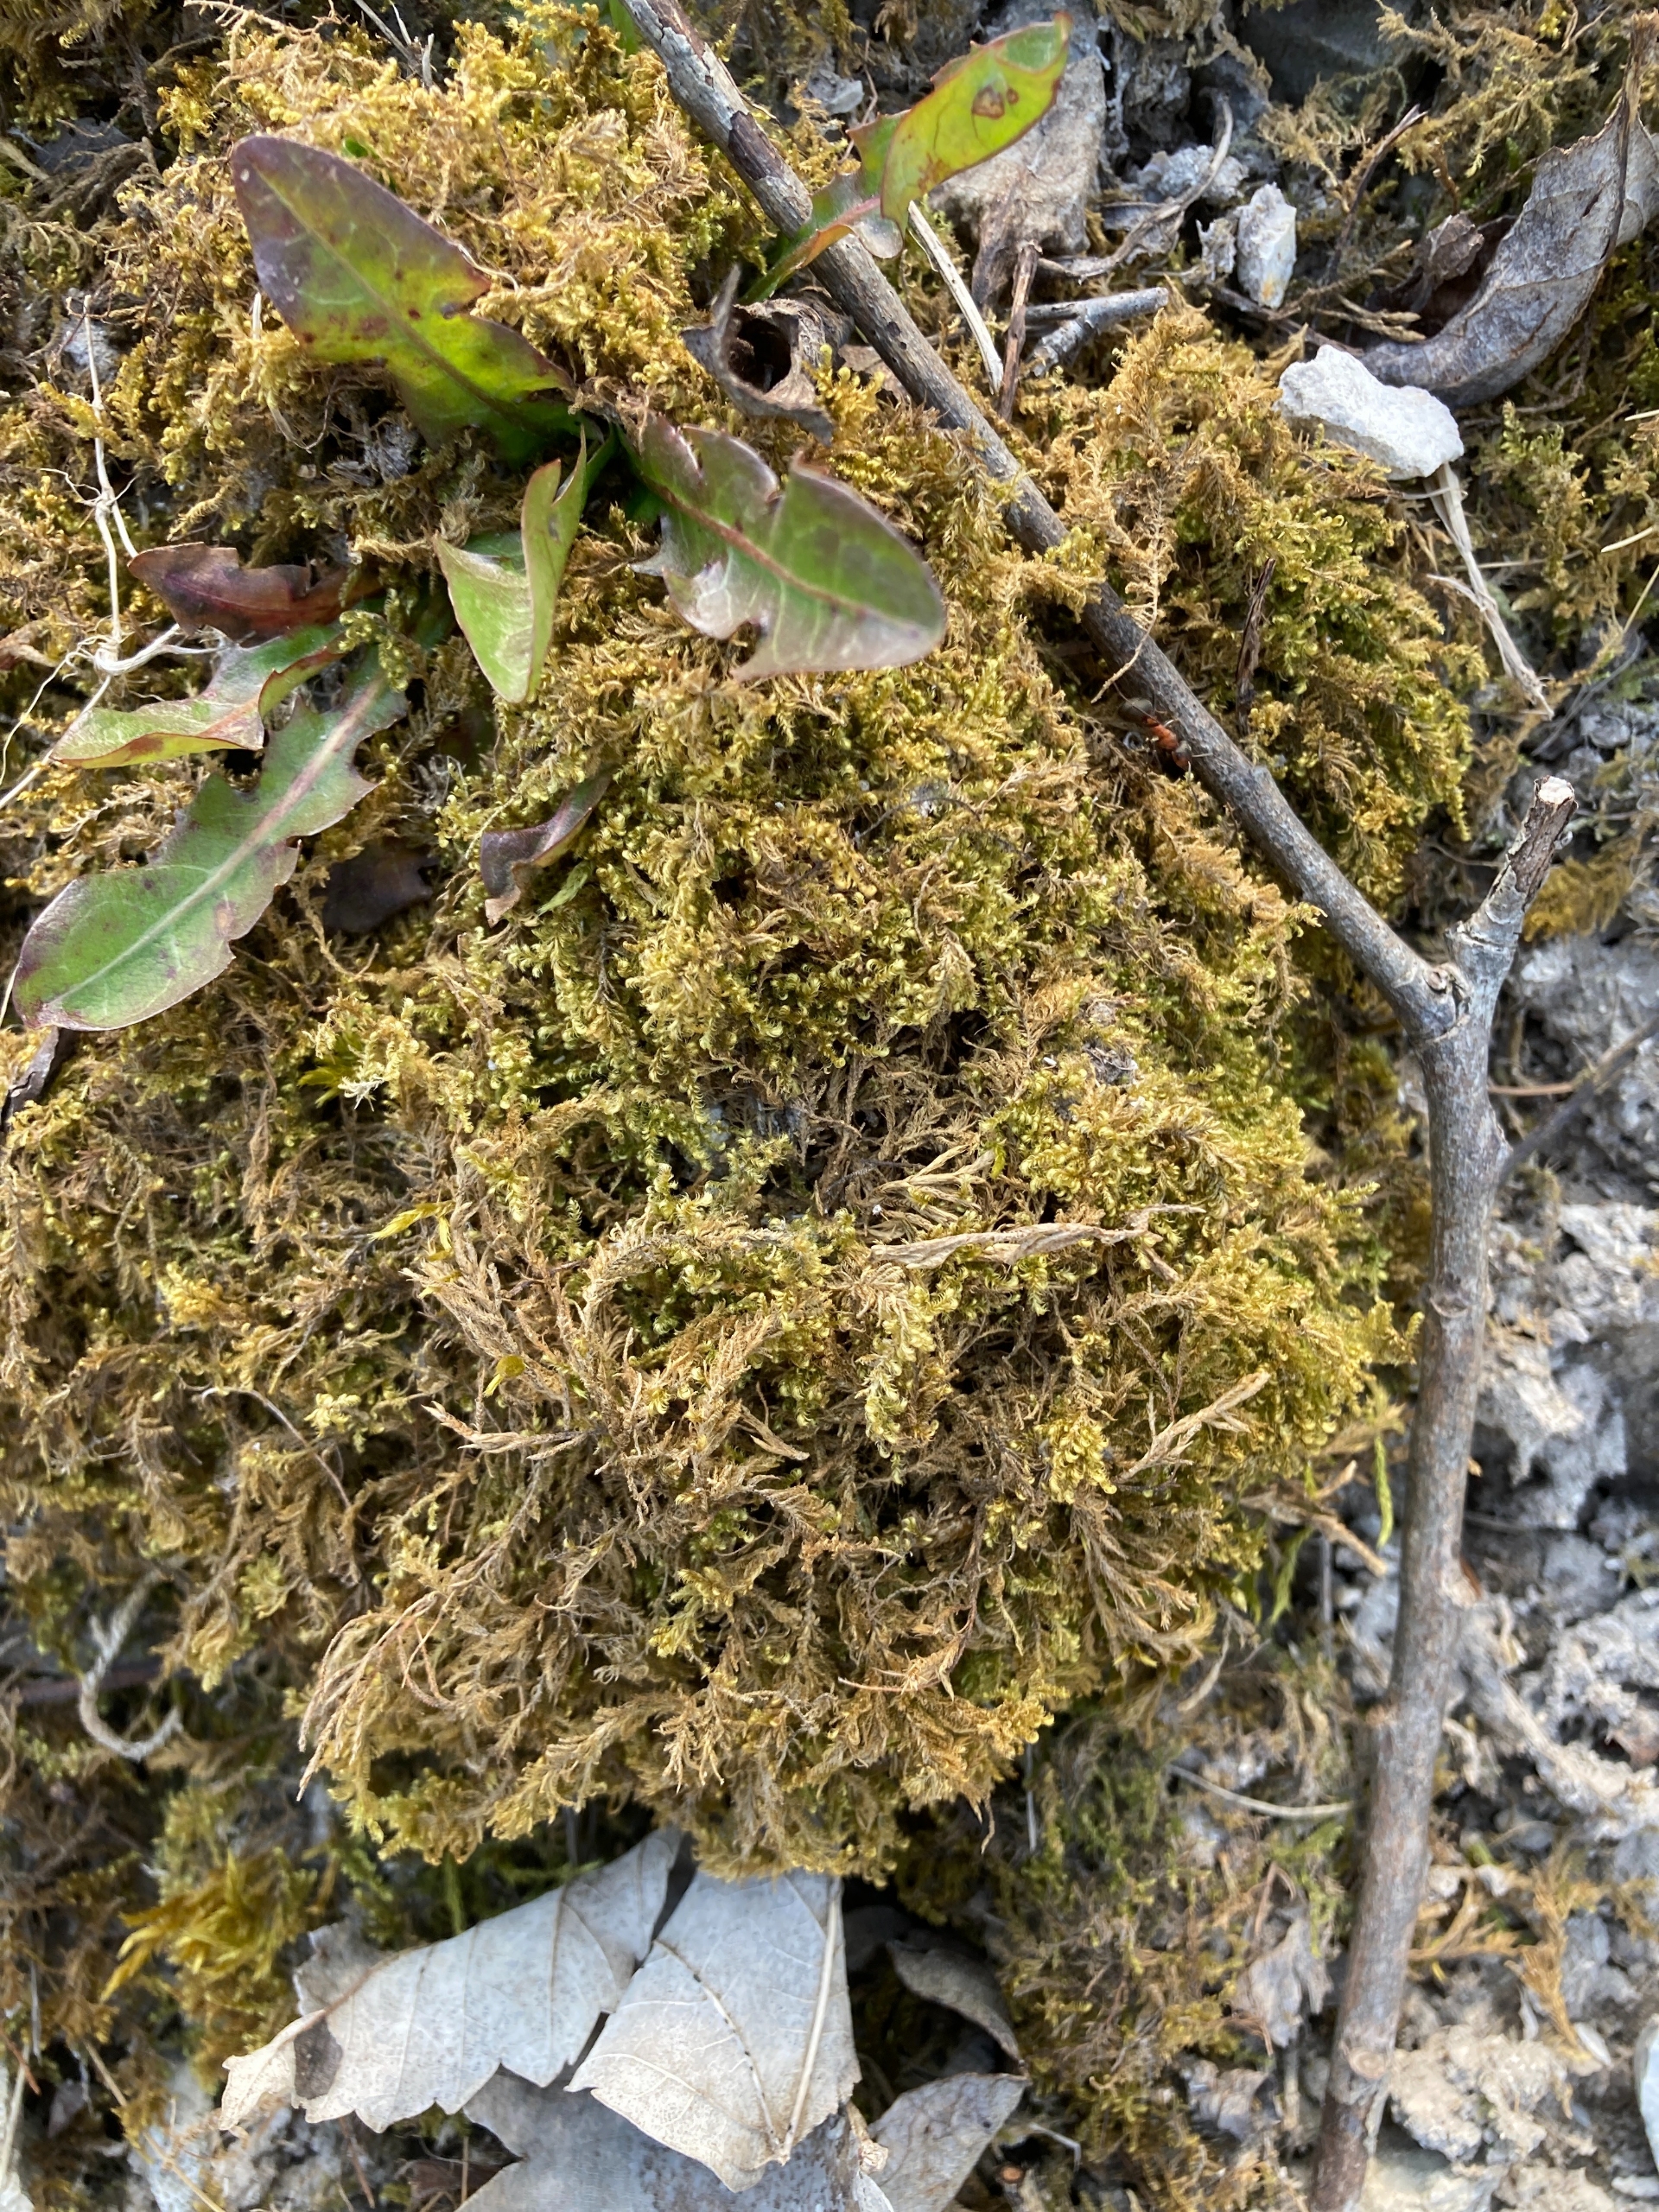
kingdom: Plantae
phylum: Bryophyta
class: Bryopsida
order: Hypnales
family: Myuriaceae
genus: Ctenidium
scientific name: Ctenidium molluscum
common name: Kalk-blødmos
